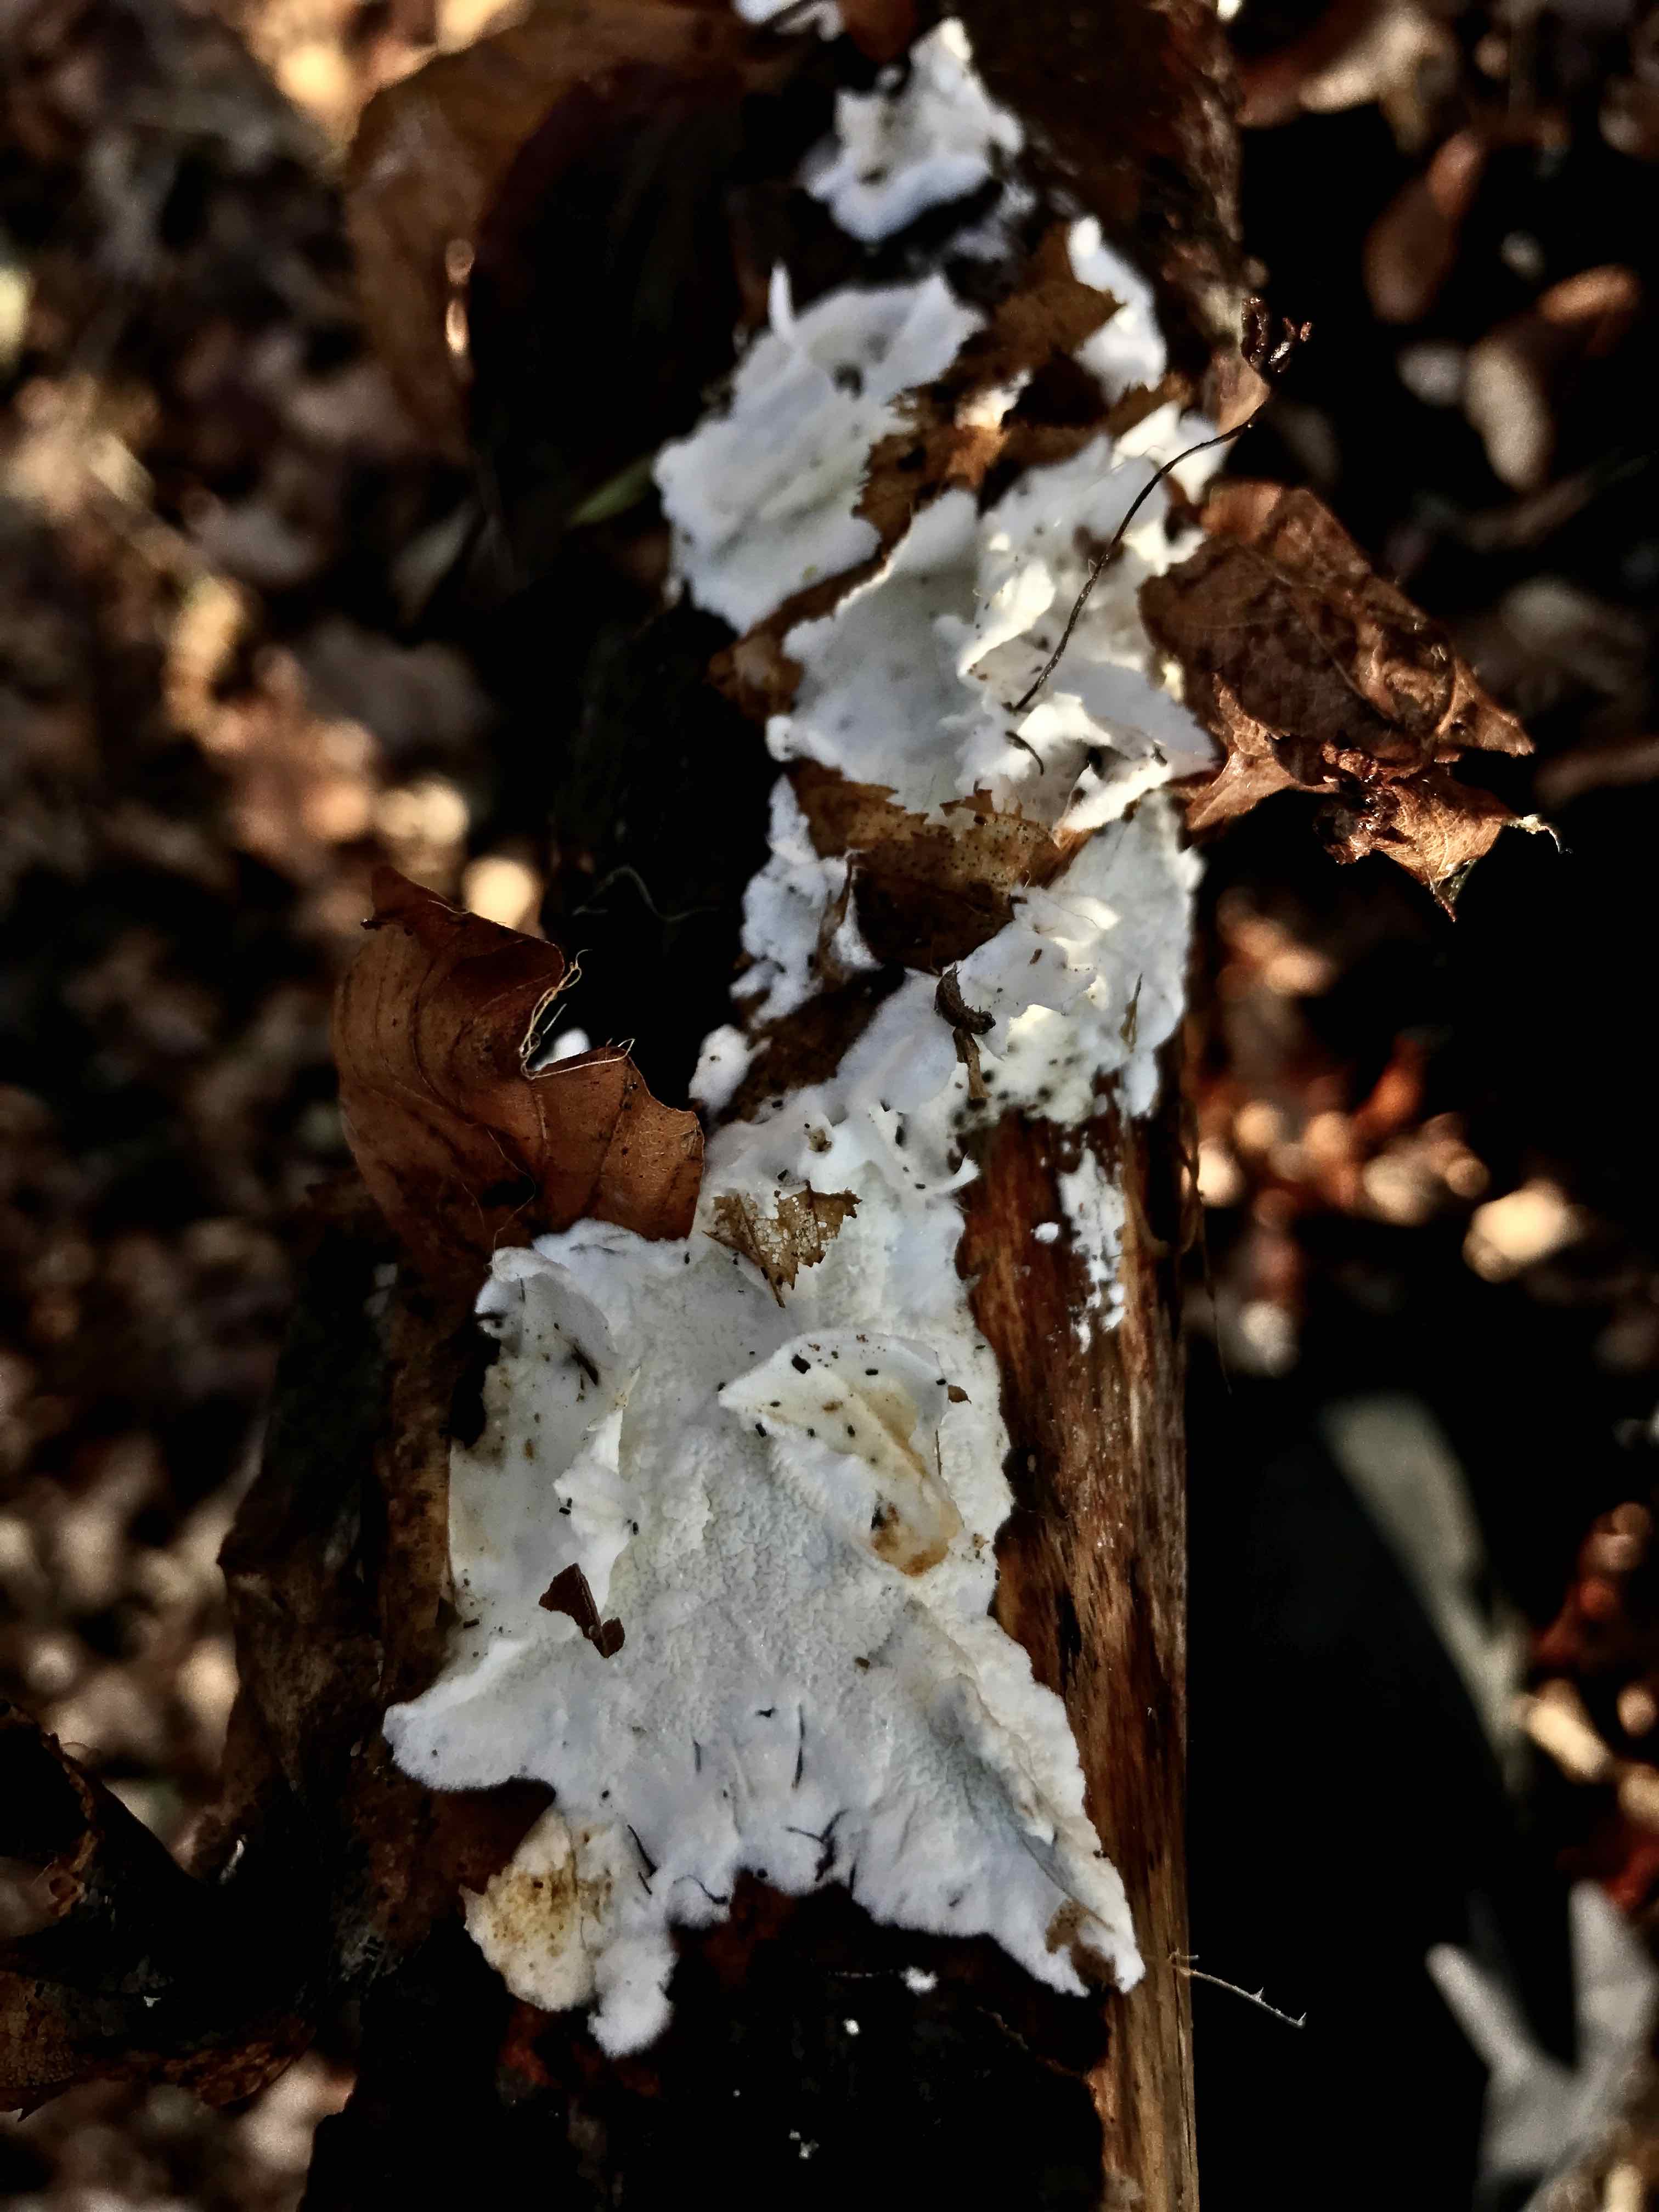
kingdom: Fungi
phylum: Basidiomycota
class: Agaricomycetes
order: Polyporales
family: Irpicaceae
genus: Byssomerulius
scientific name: Byssomerulius corium
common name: læder-åresvamp
